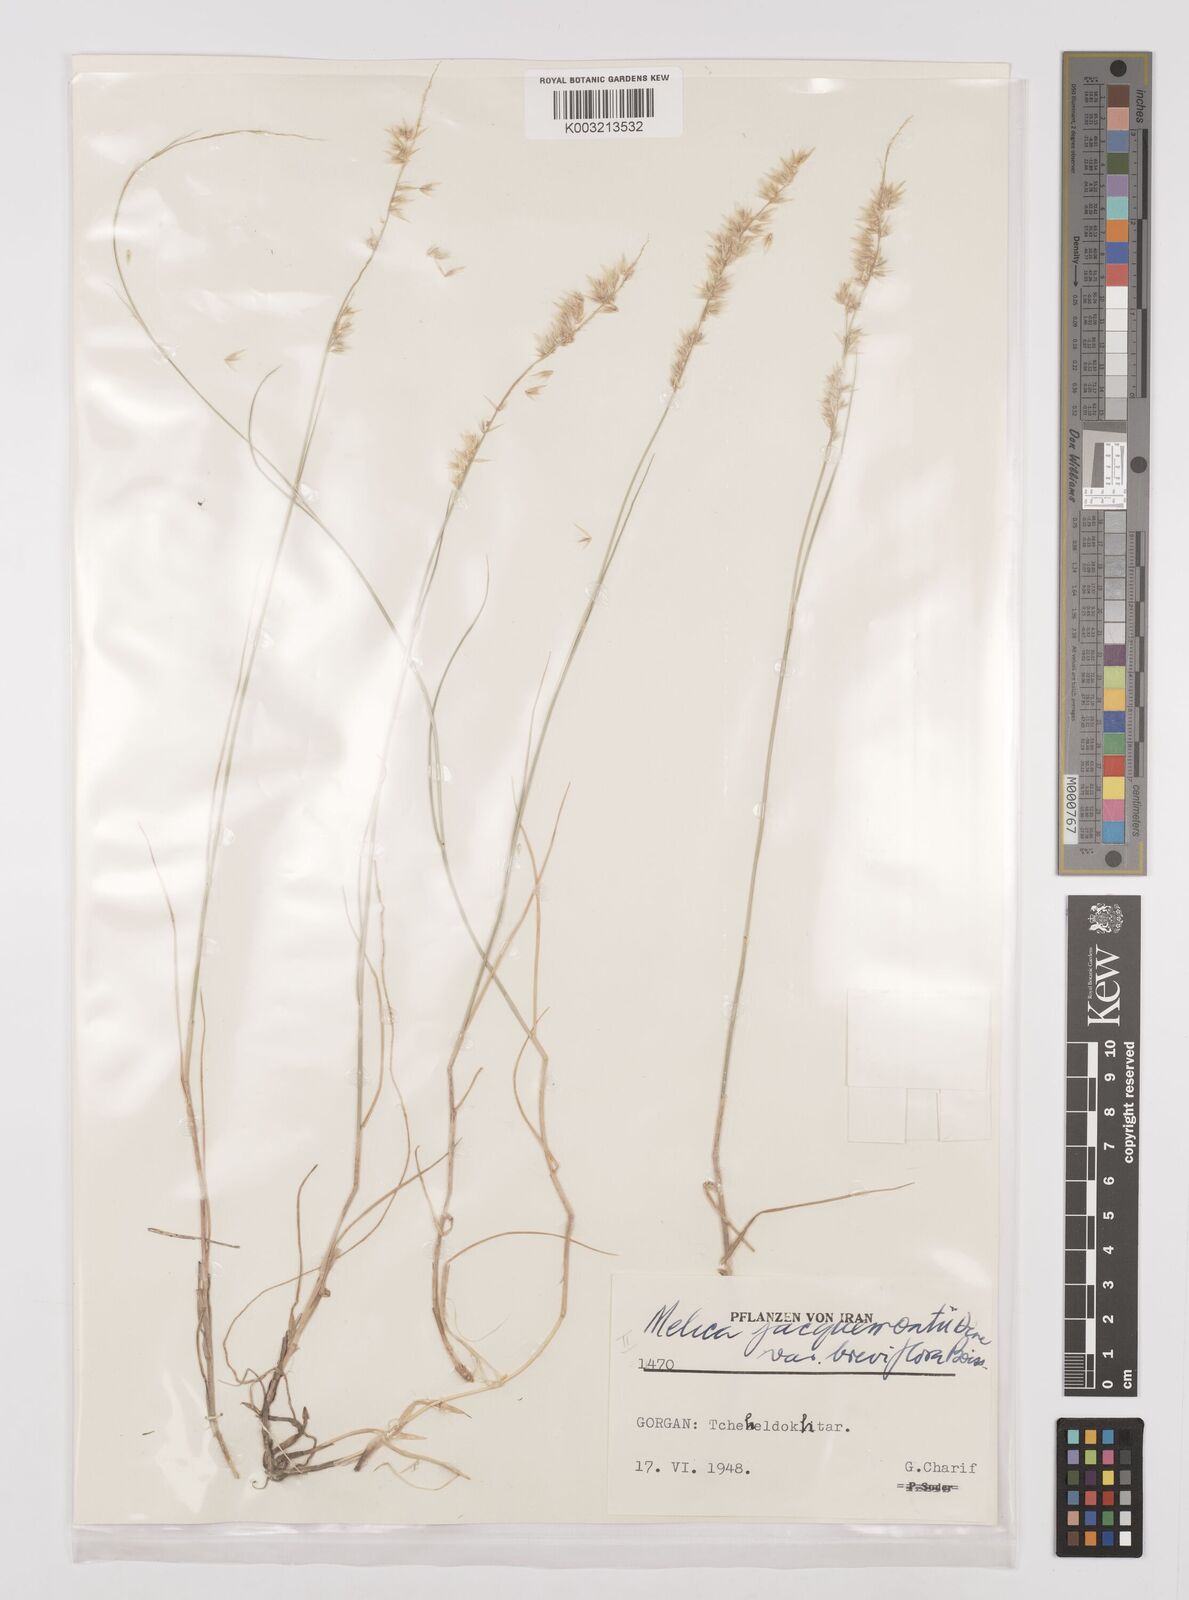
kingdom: Plantae
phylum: Tracheophyta
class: Liliopsida
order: Poales
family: Poaceae
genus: Melica
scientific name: Melica persica
